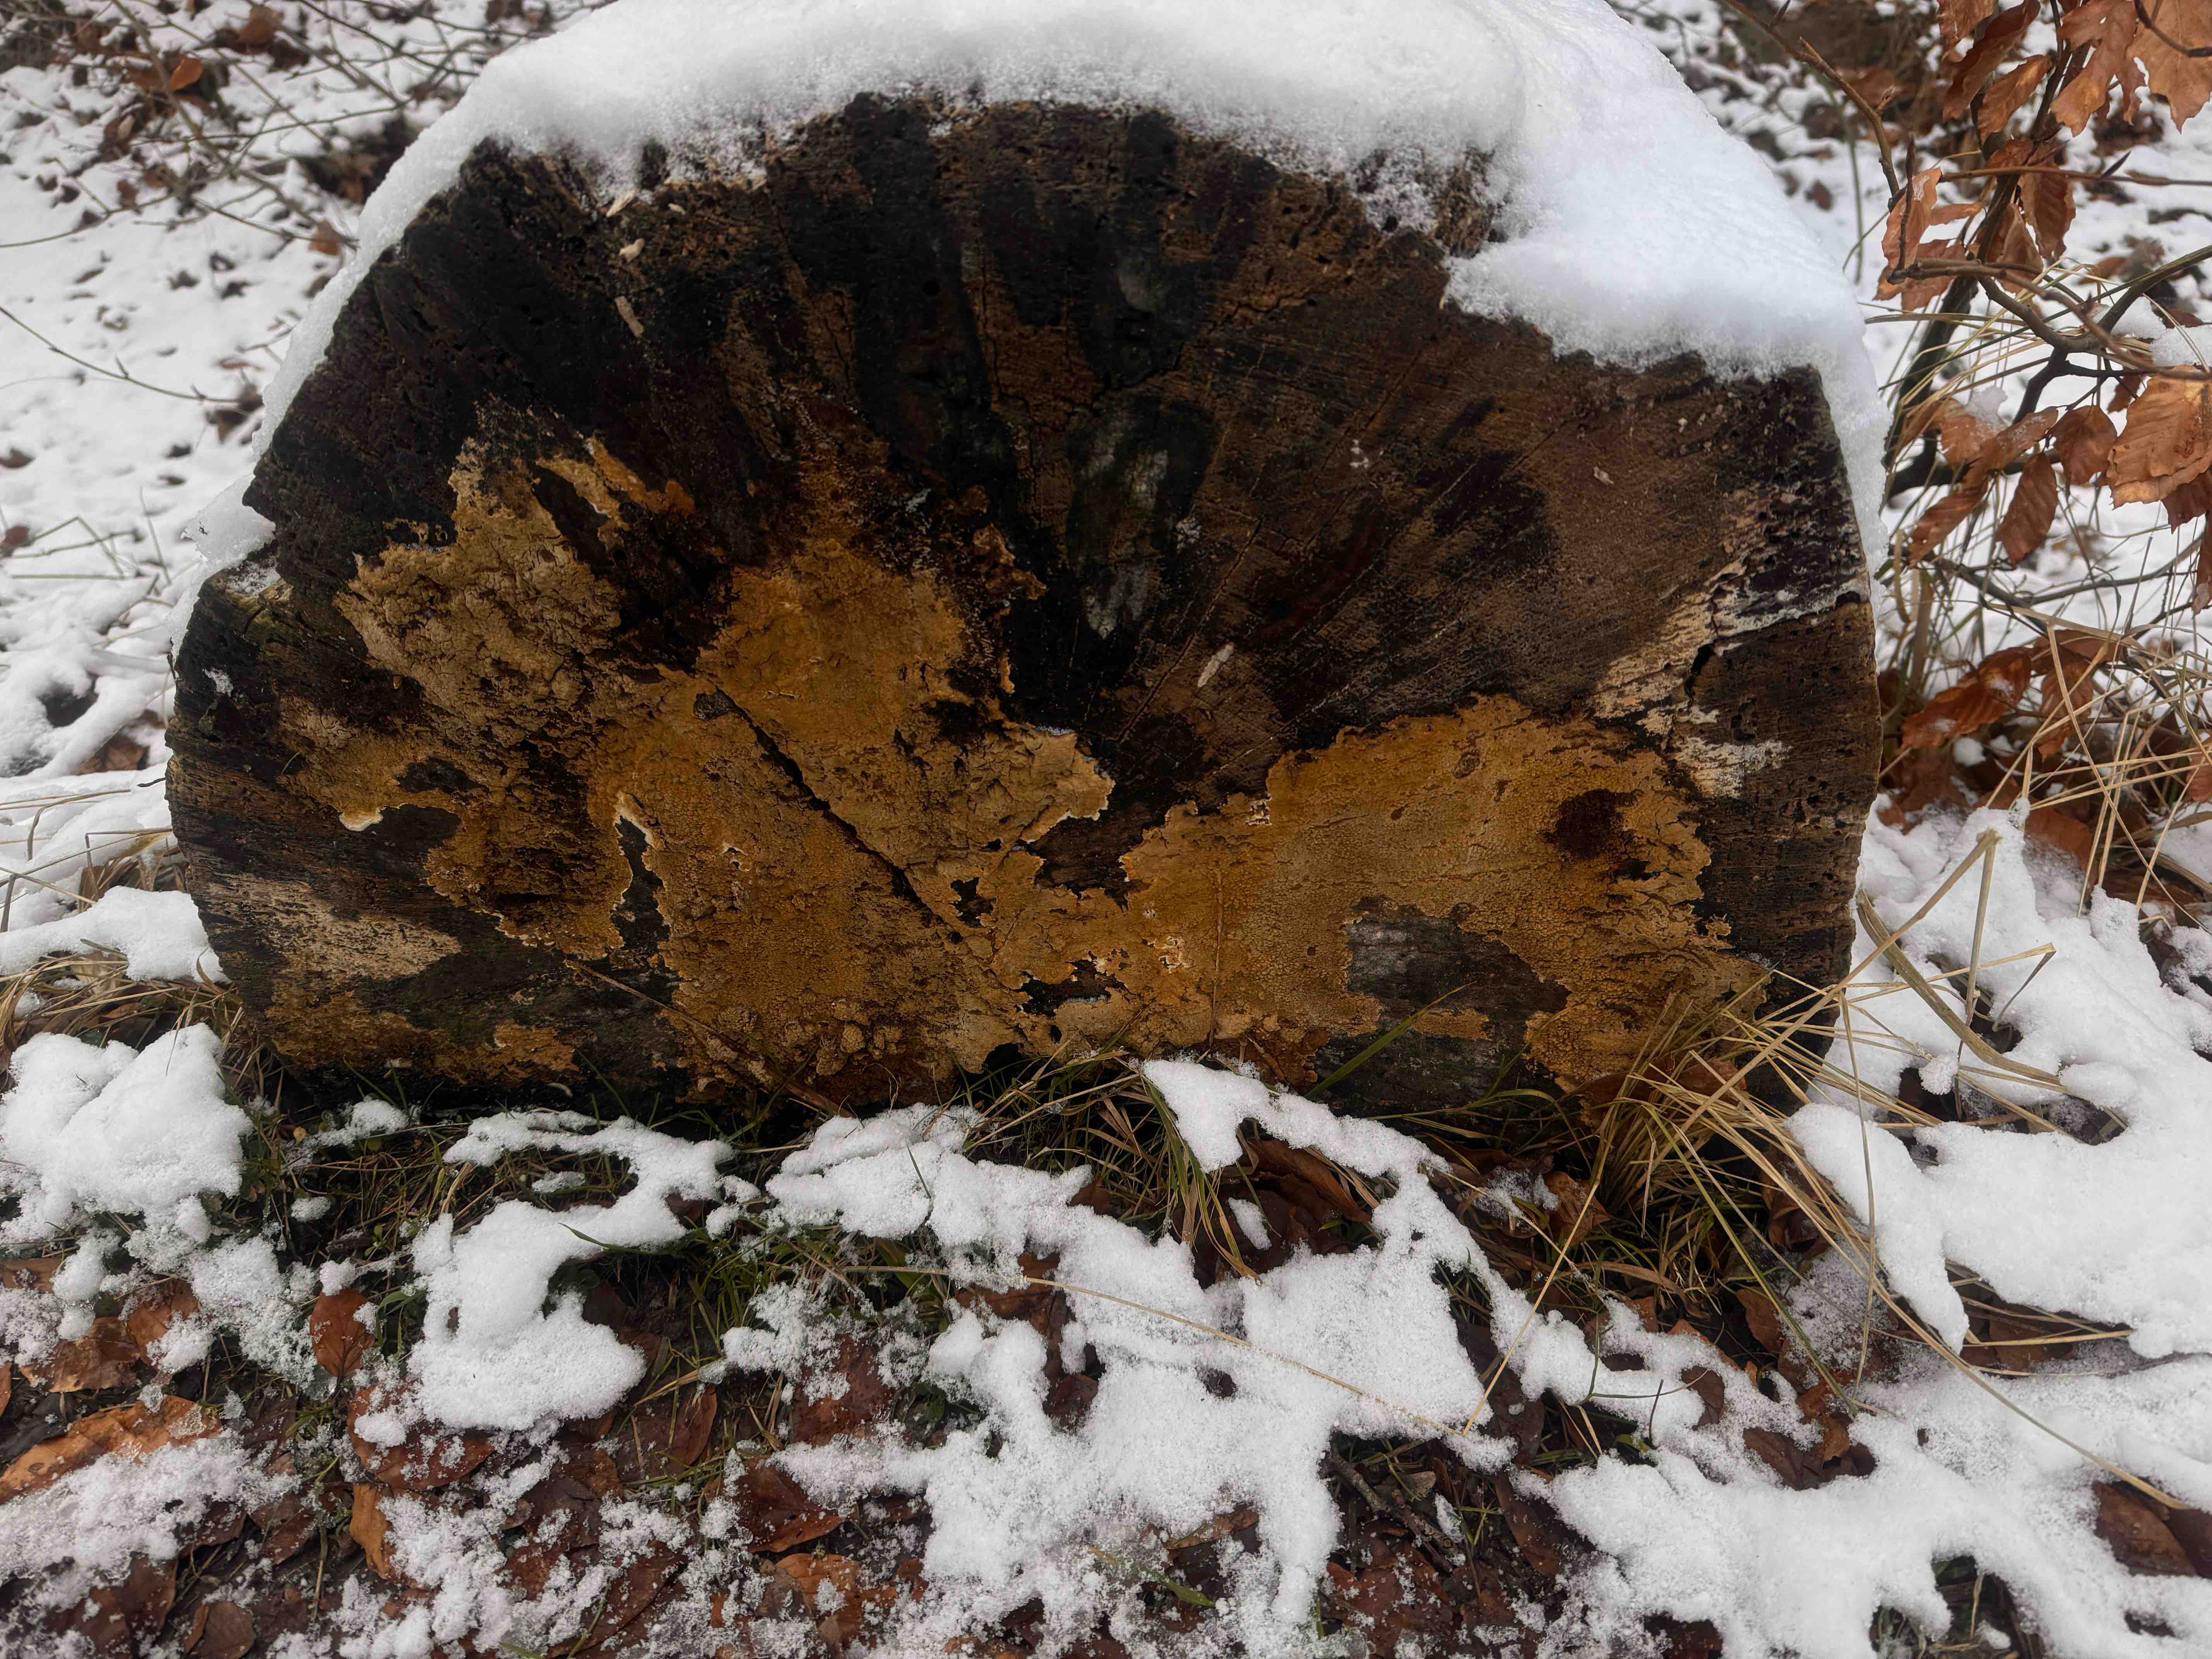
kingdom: Fungi
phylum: Basidiomycota
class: Agaricomycetes
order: Boletales
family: Coniophoraceae
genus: Coniophora
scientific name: Coniophora puteana
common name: gul tømmersvamp
